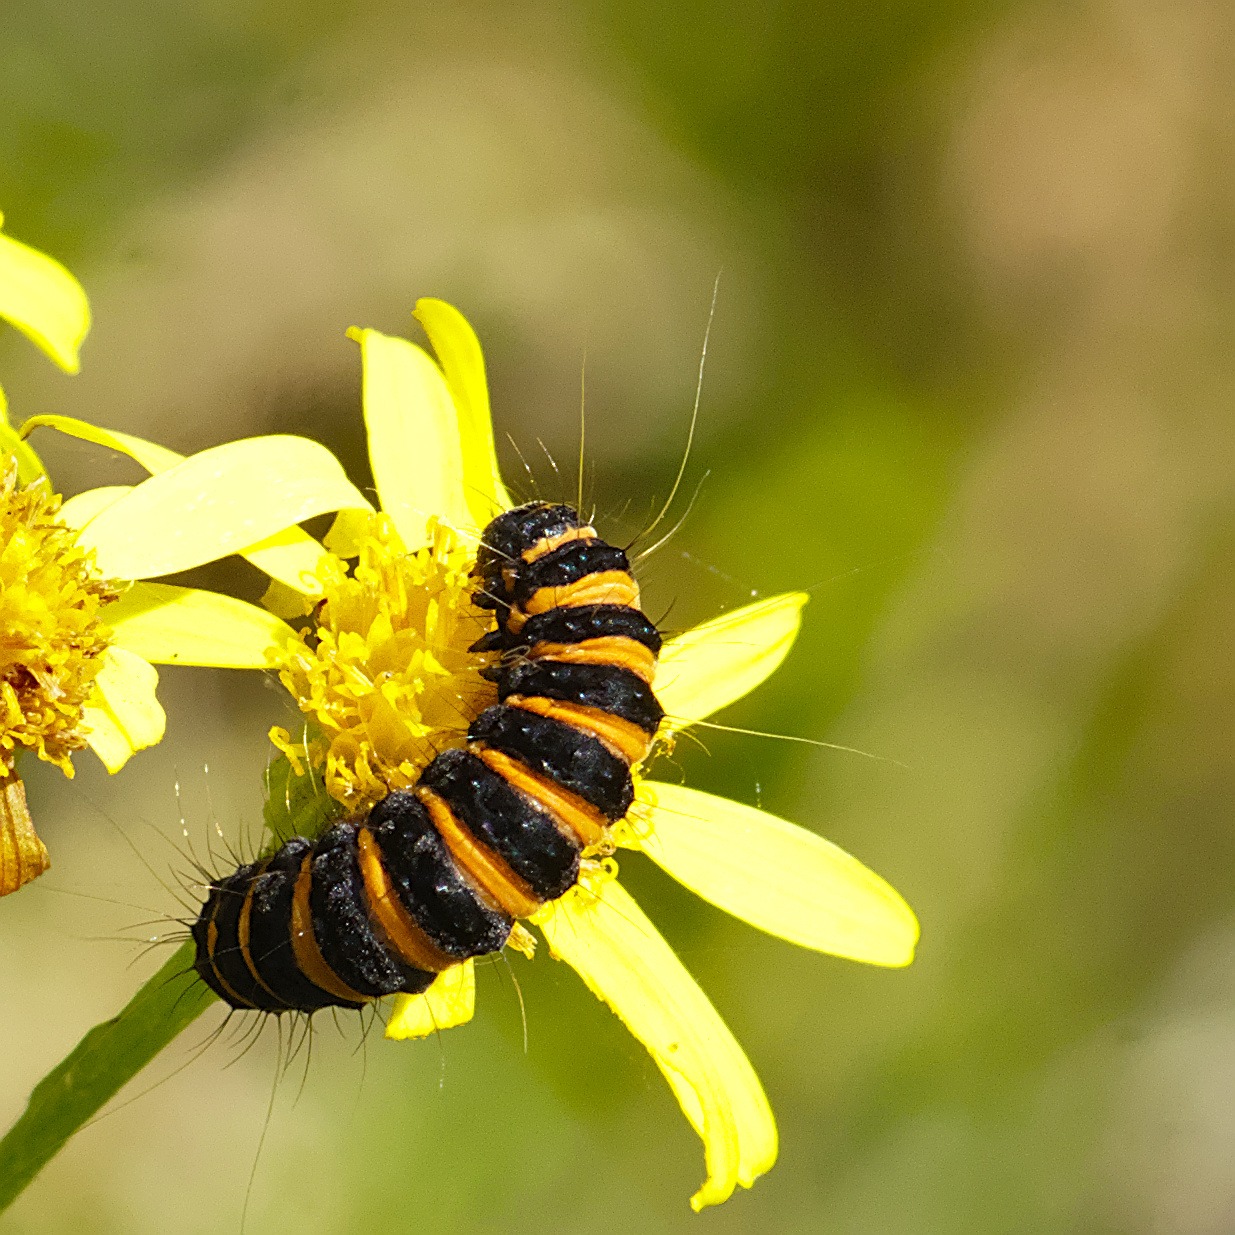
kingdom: Animalia
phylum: Arthropoda
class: Insecta
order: Lepidoptera
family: Erebidae
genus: Tyria
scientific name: Tyria jacobaeae
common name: Blodplet
